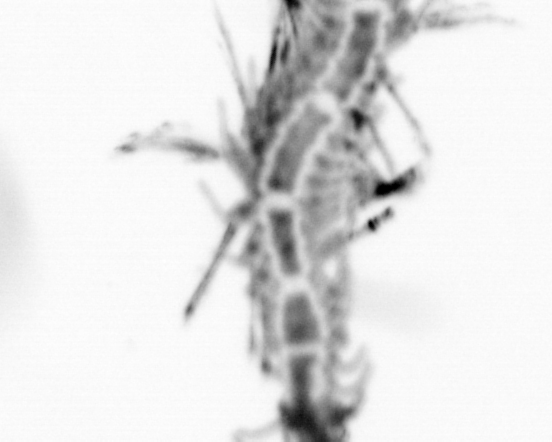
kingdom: Animalia
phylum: Annelida
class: Polychaeta
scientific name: Polychaeta
